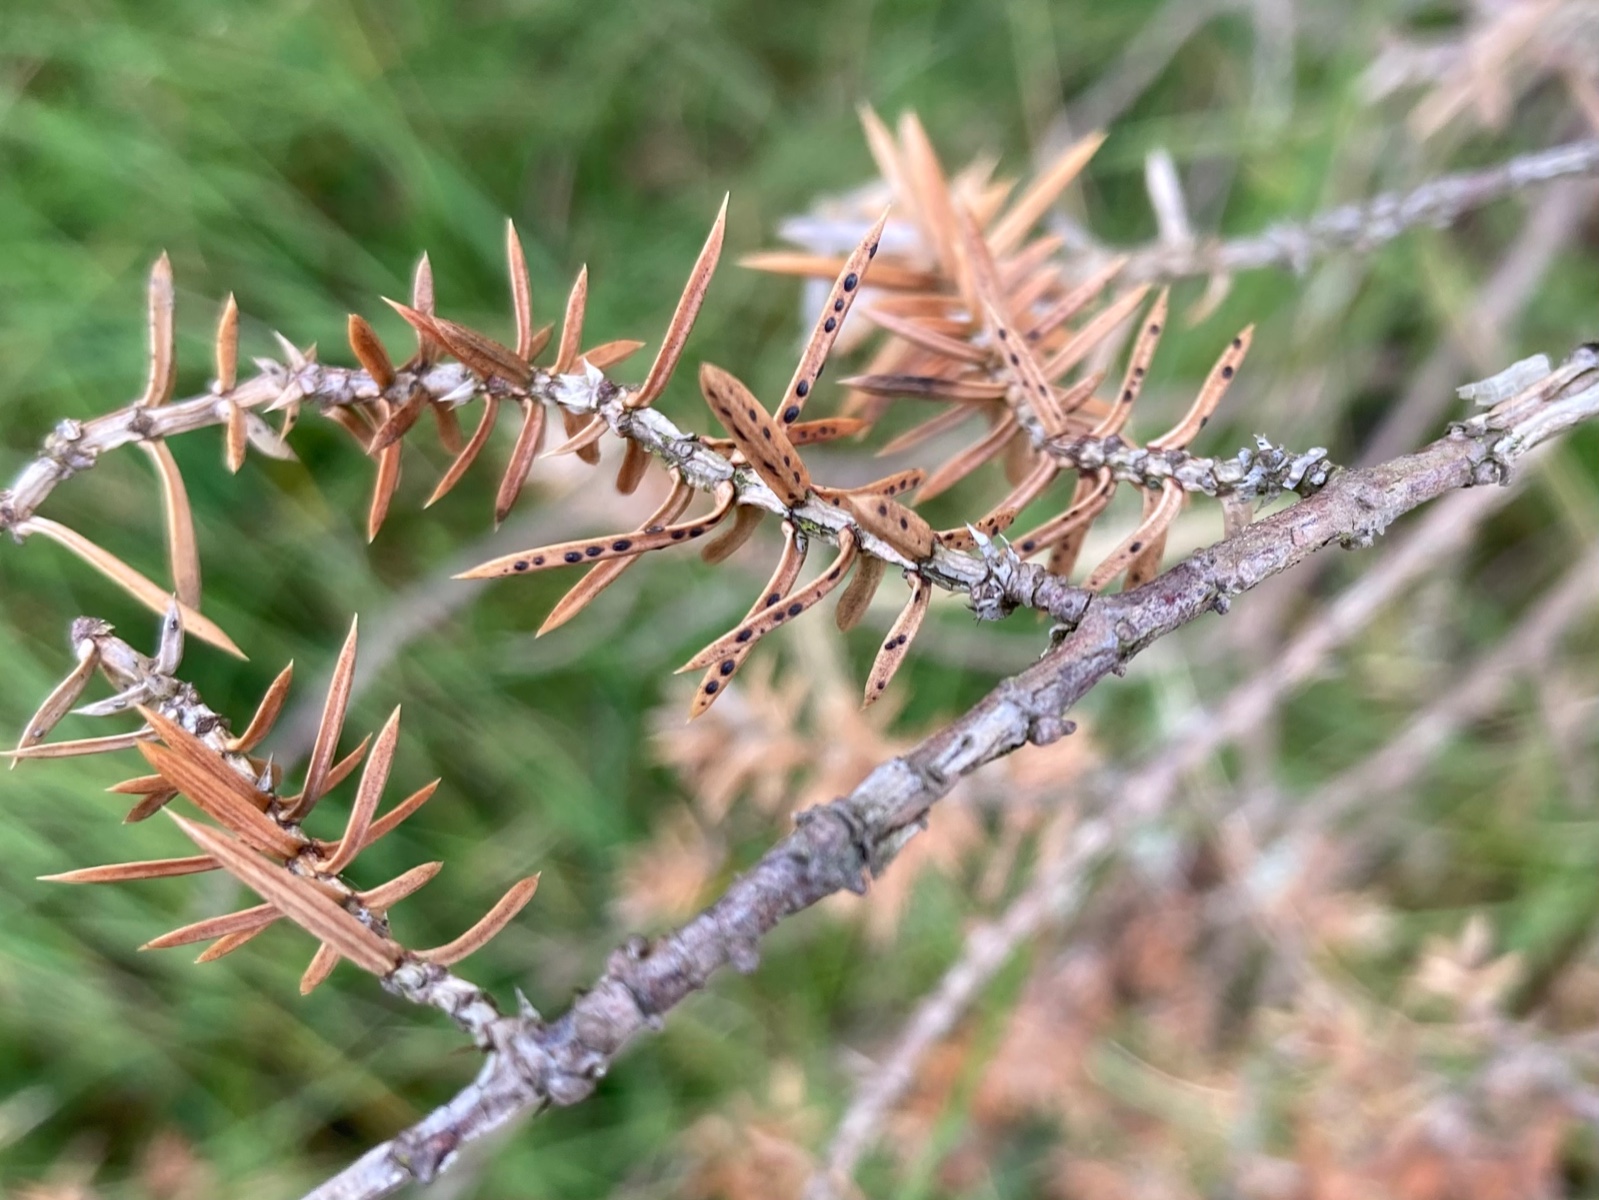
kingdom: Fungi
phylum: Ascomycota
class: Leotiomycetes
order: Rhytismatales
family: Rhytismataceae
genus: Lophodermium
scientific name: Lophodermium juniperinum
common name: ene-fureplet
